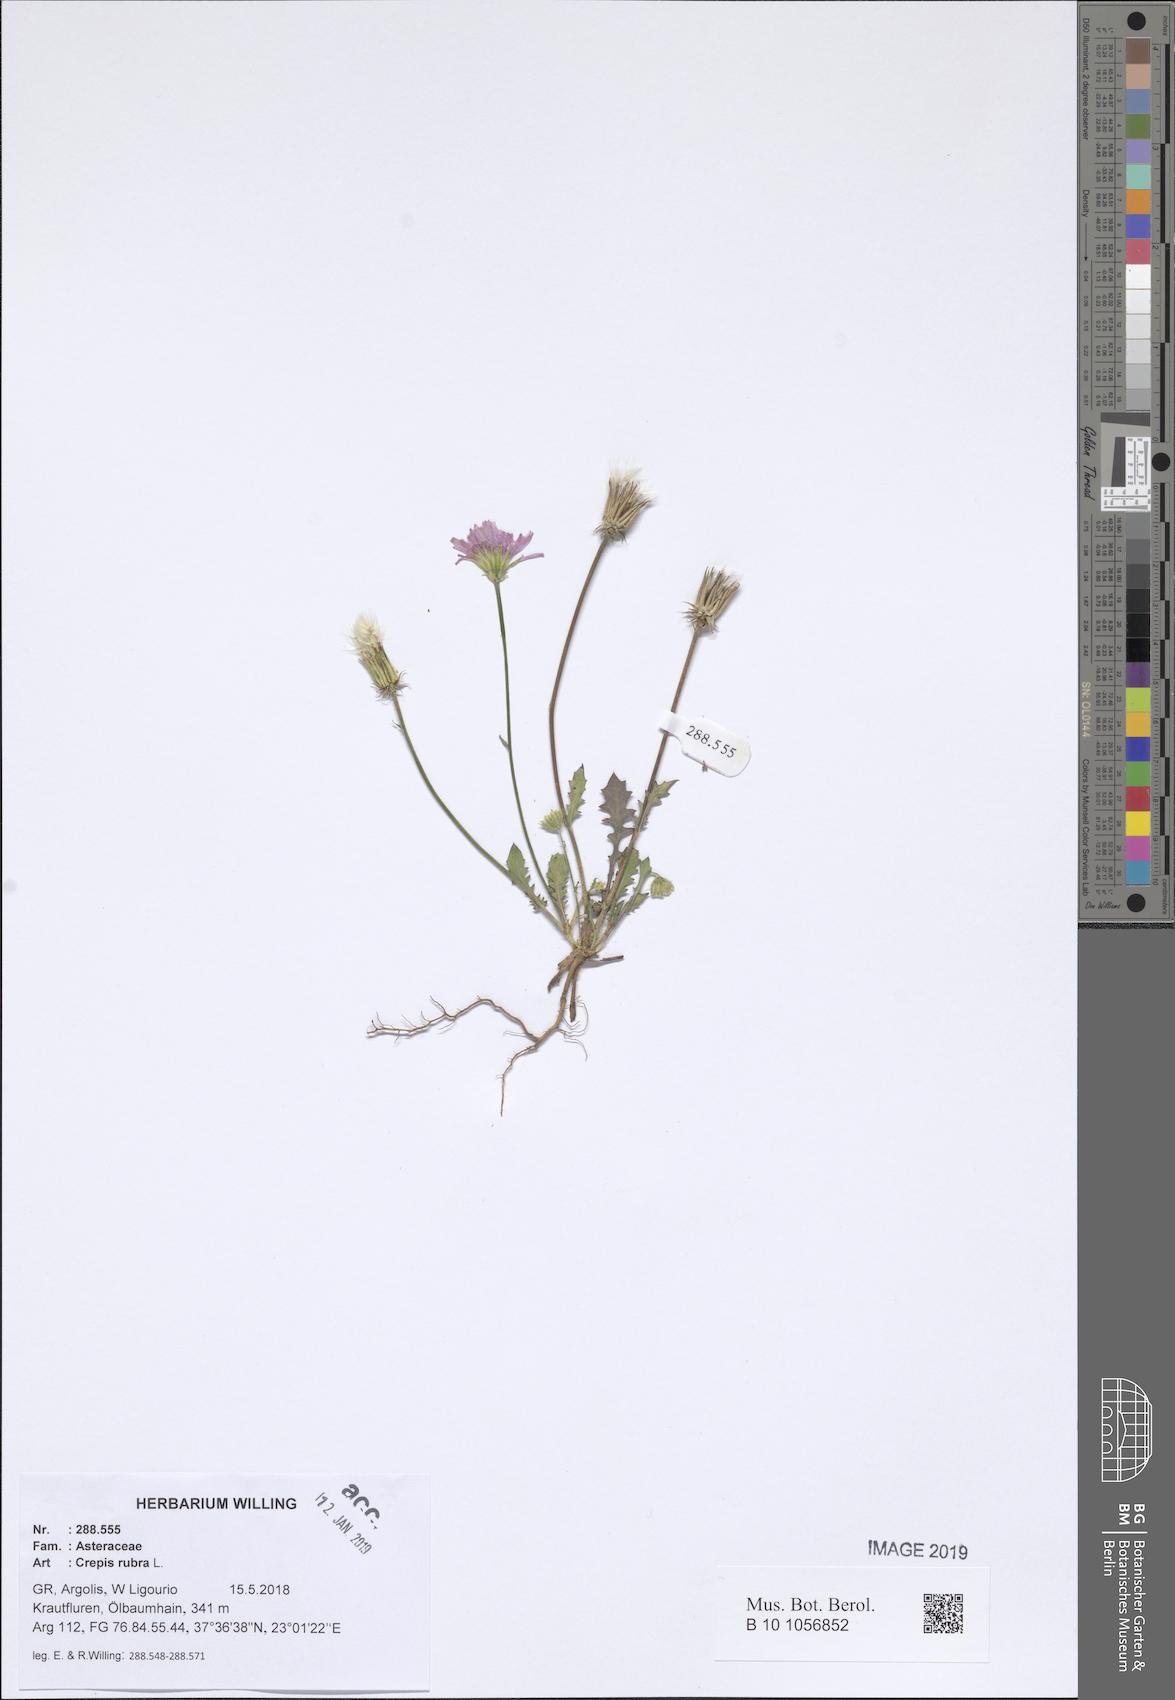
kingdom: Plantae
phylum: Tracheophyta
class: Magnoliopsida
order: Asterales
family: Asteraceae
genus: Crepis
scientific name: Crepis rubra
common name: Pink hawk's-beard
